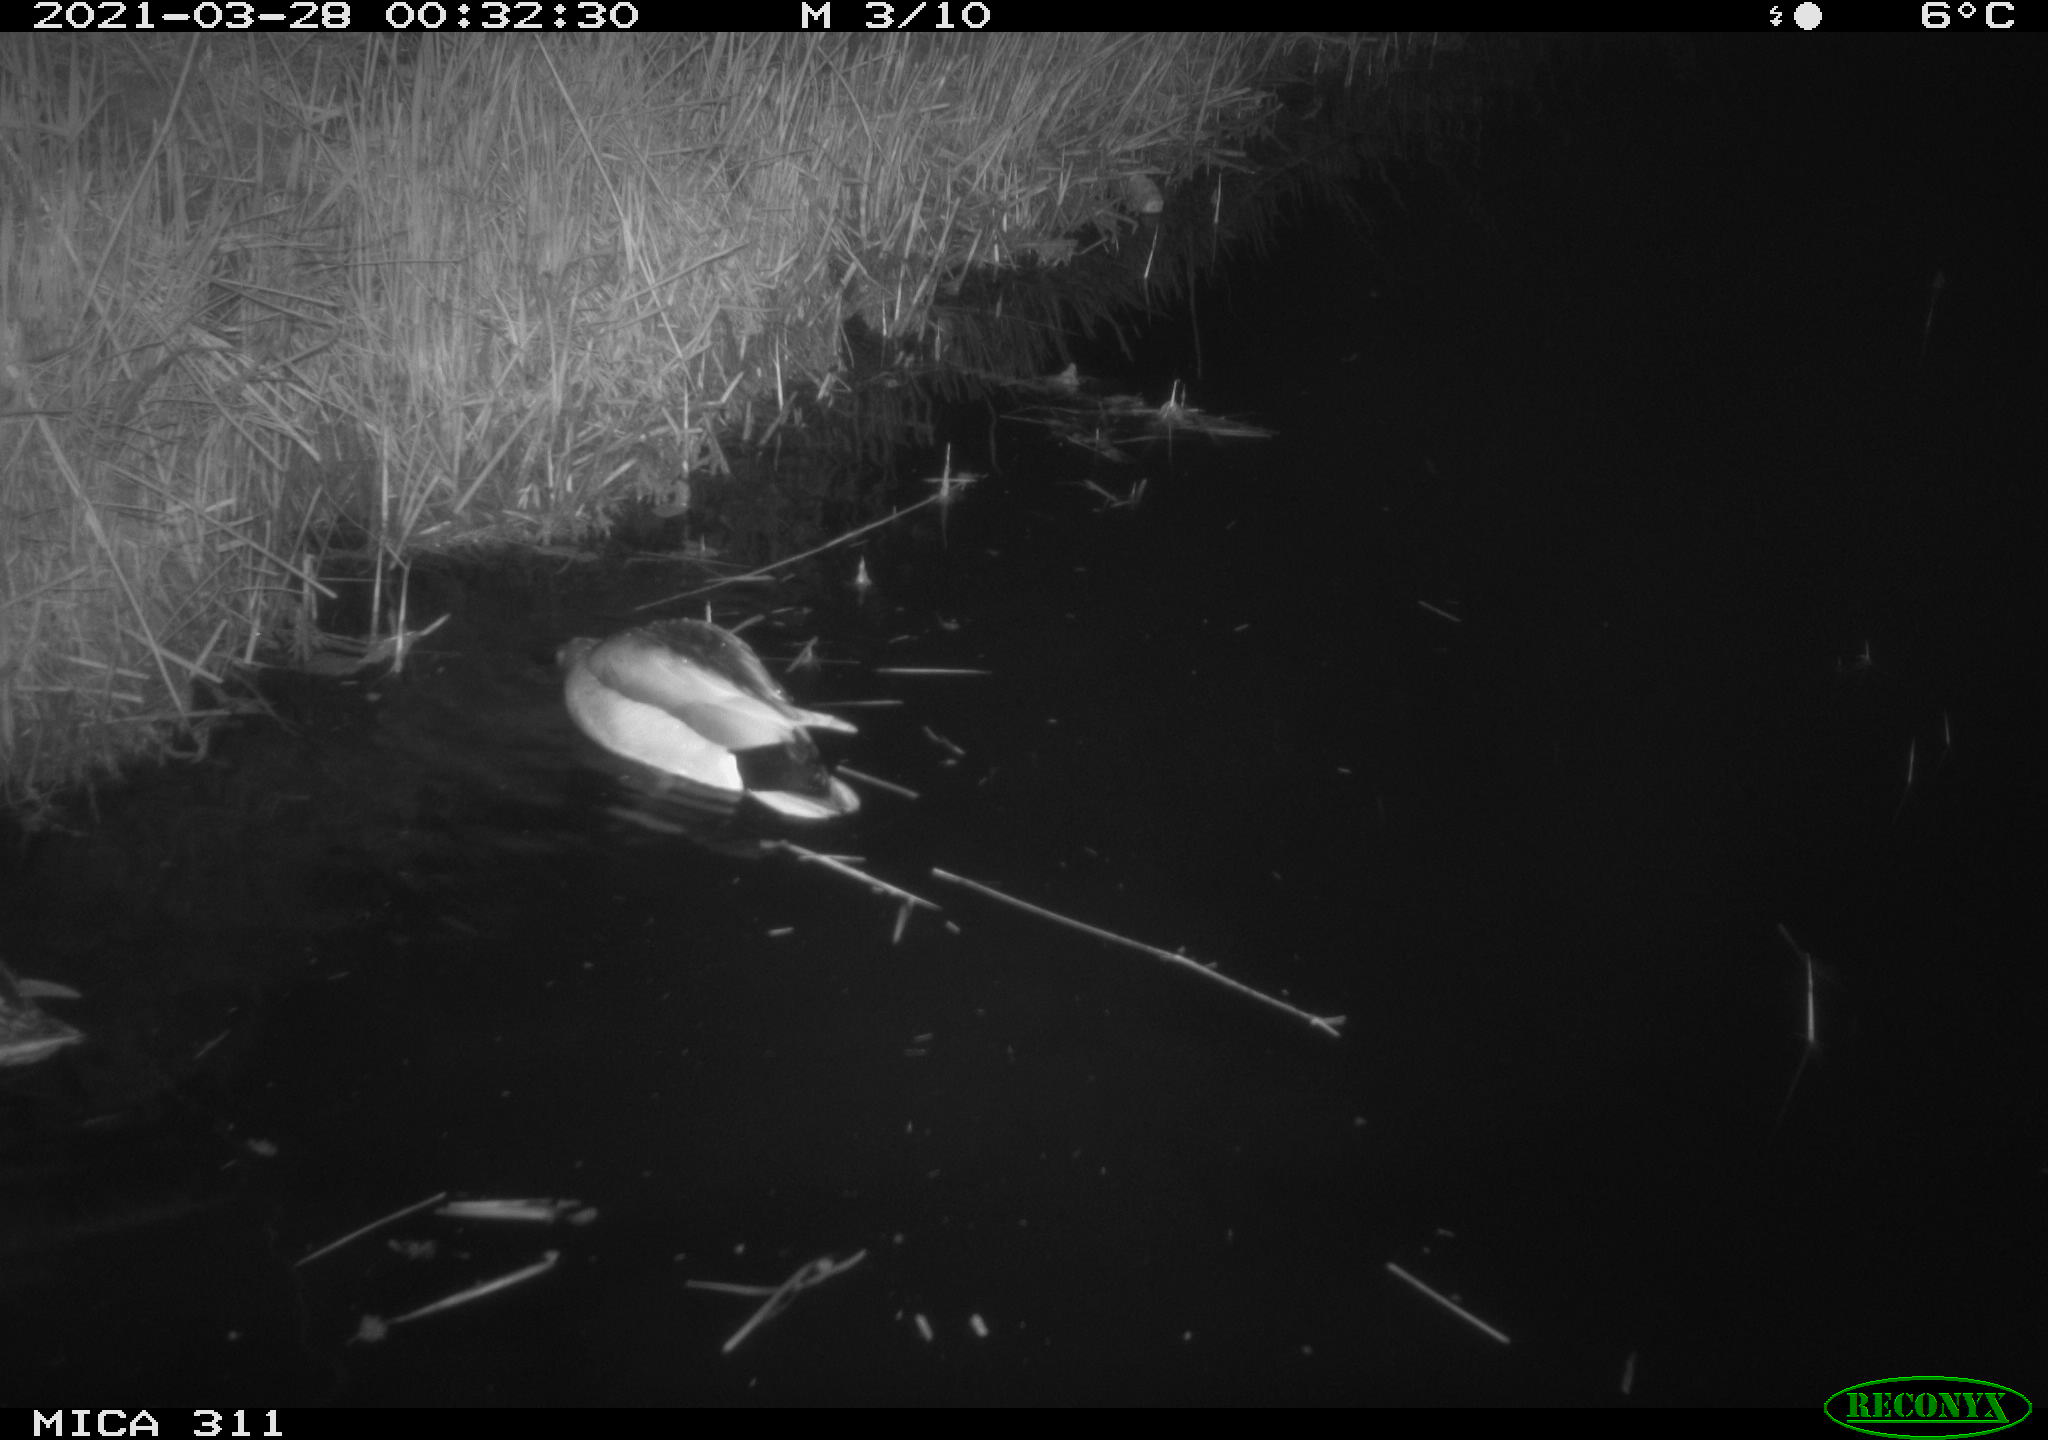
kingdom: Animalia
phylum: Chordata
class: Aves
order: Anseriformes
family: Anatidae
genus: Anas
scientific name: Anas platyrhynchos
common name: Mallard
